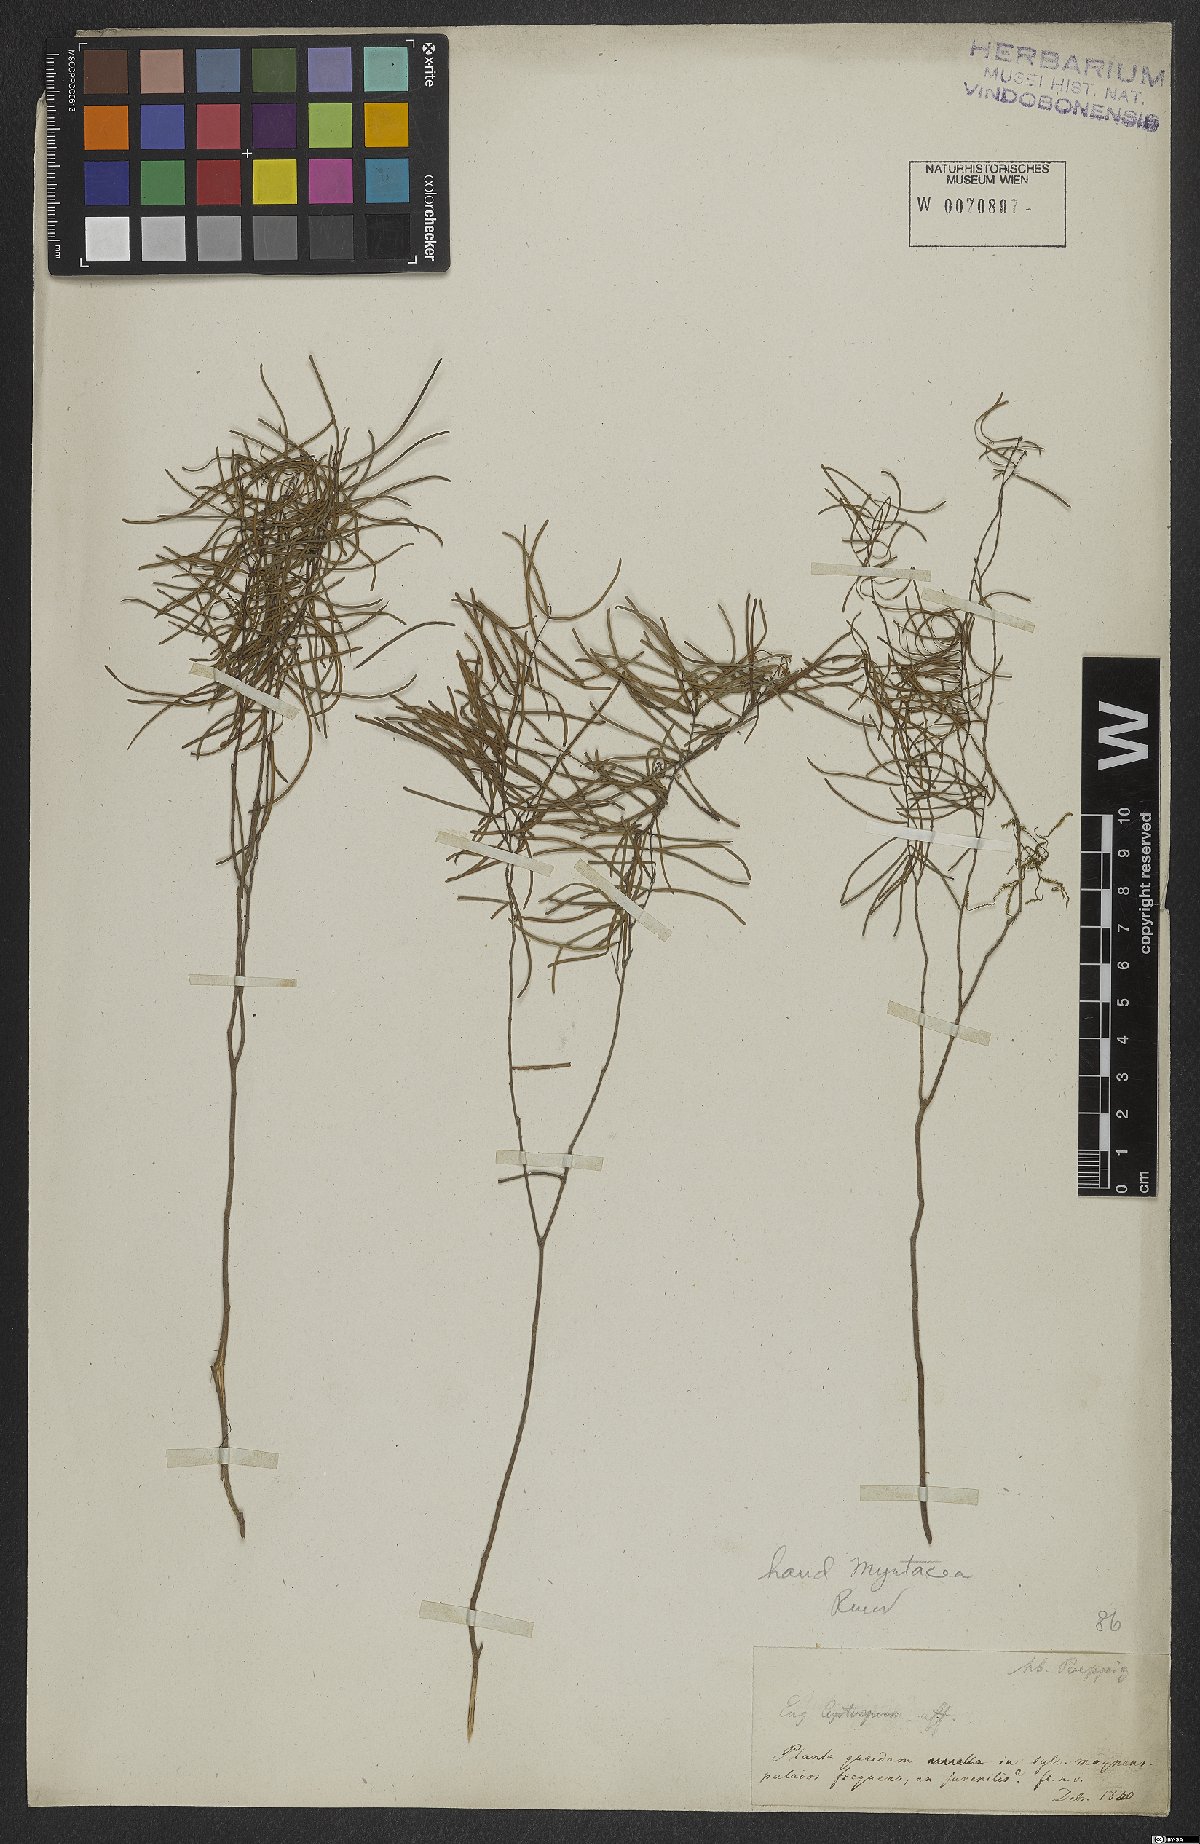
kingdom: Plantae
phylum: Tracheophyta
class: Magnoliopsida
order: Myrtales
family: Myrtaceae
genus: Eugenia
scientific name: Eugenia
